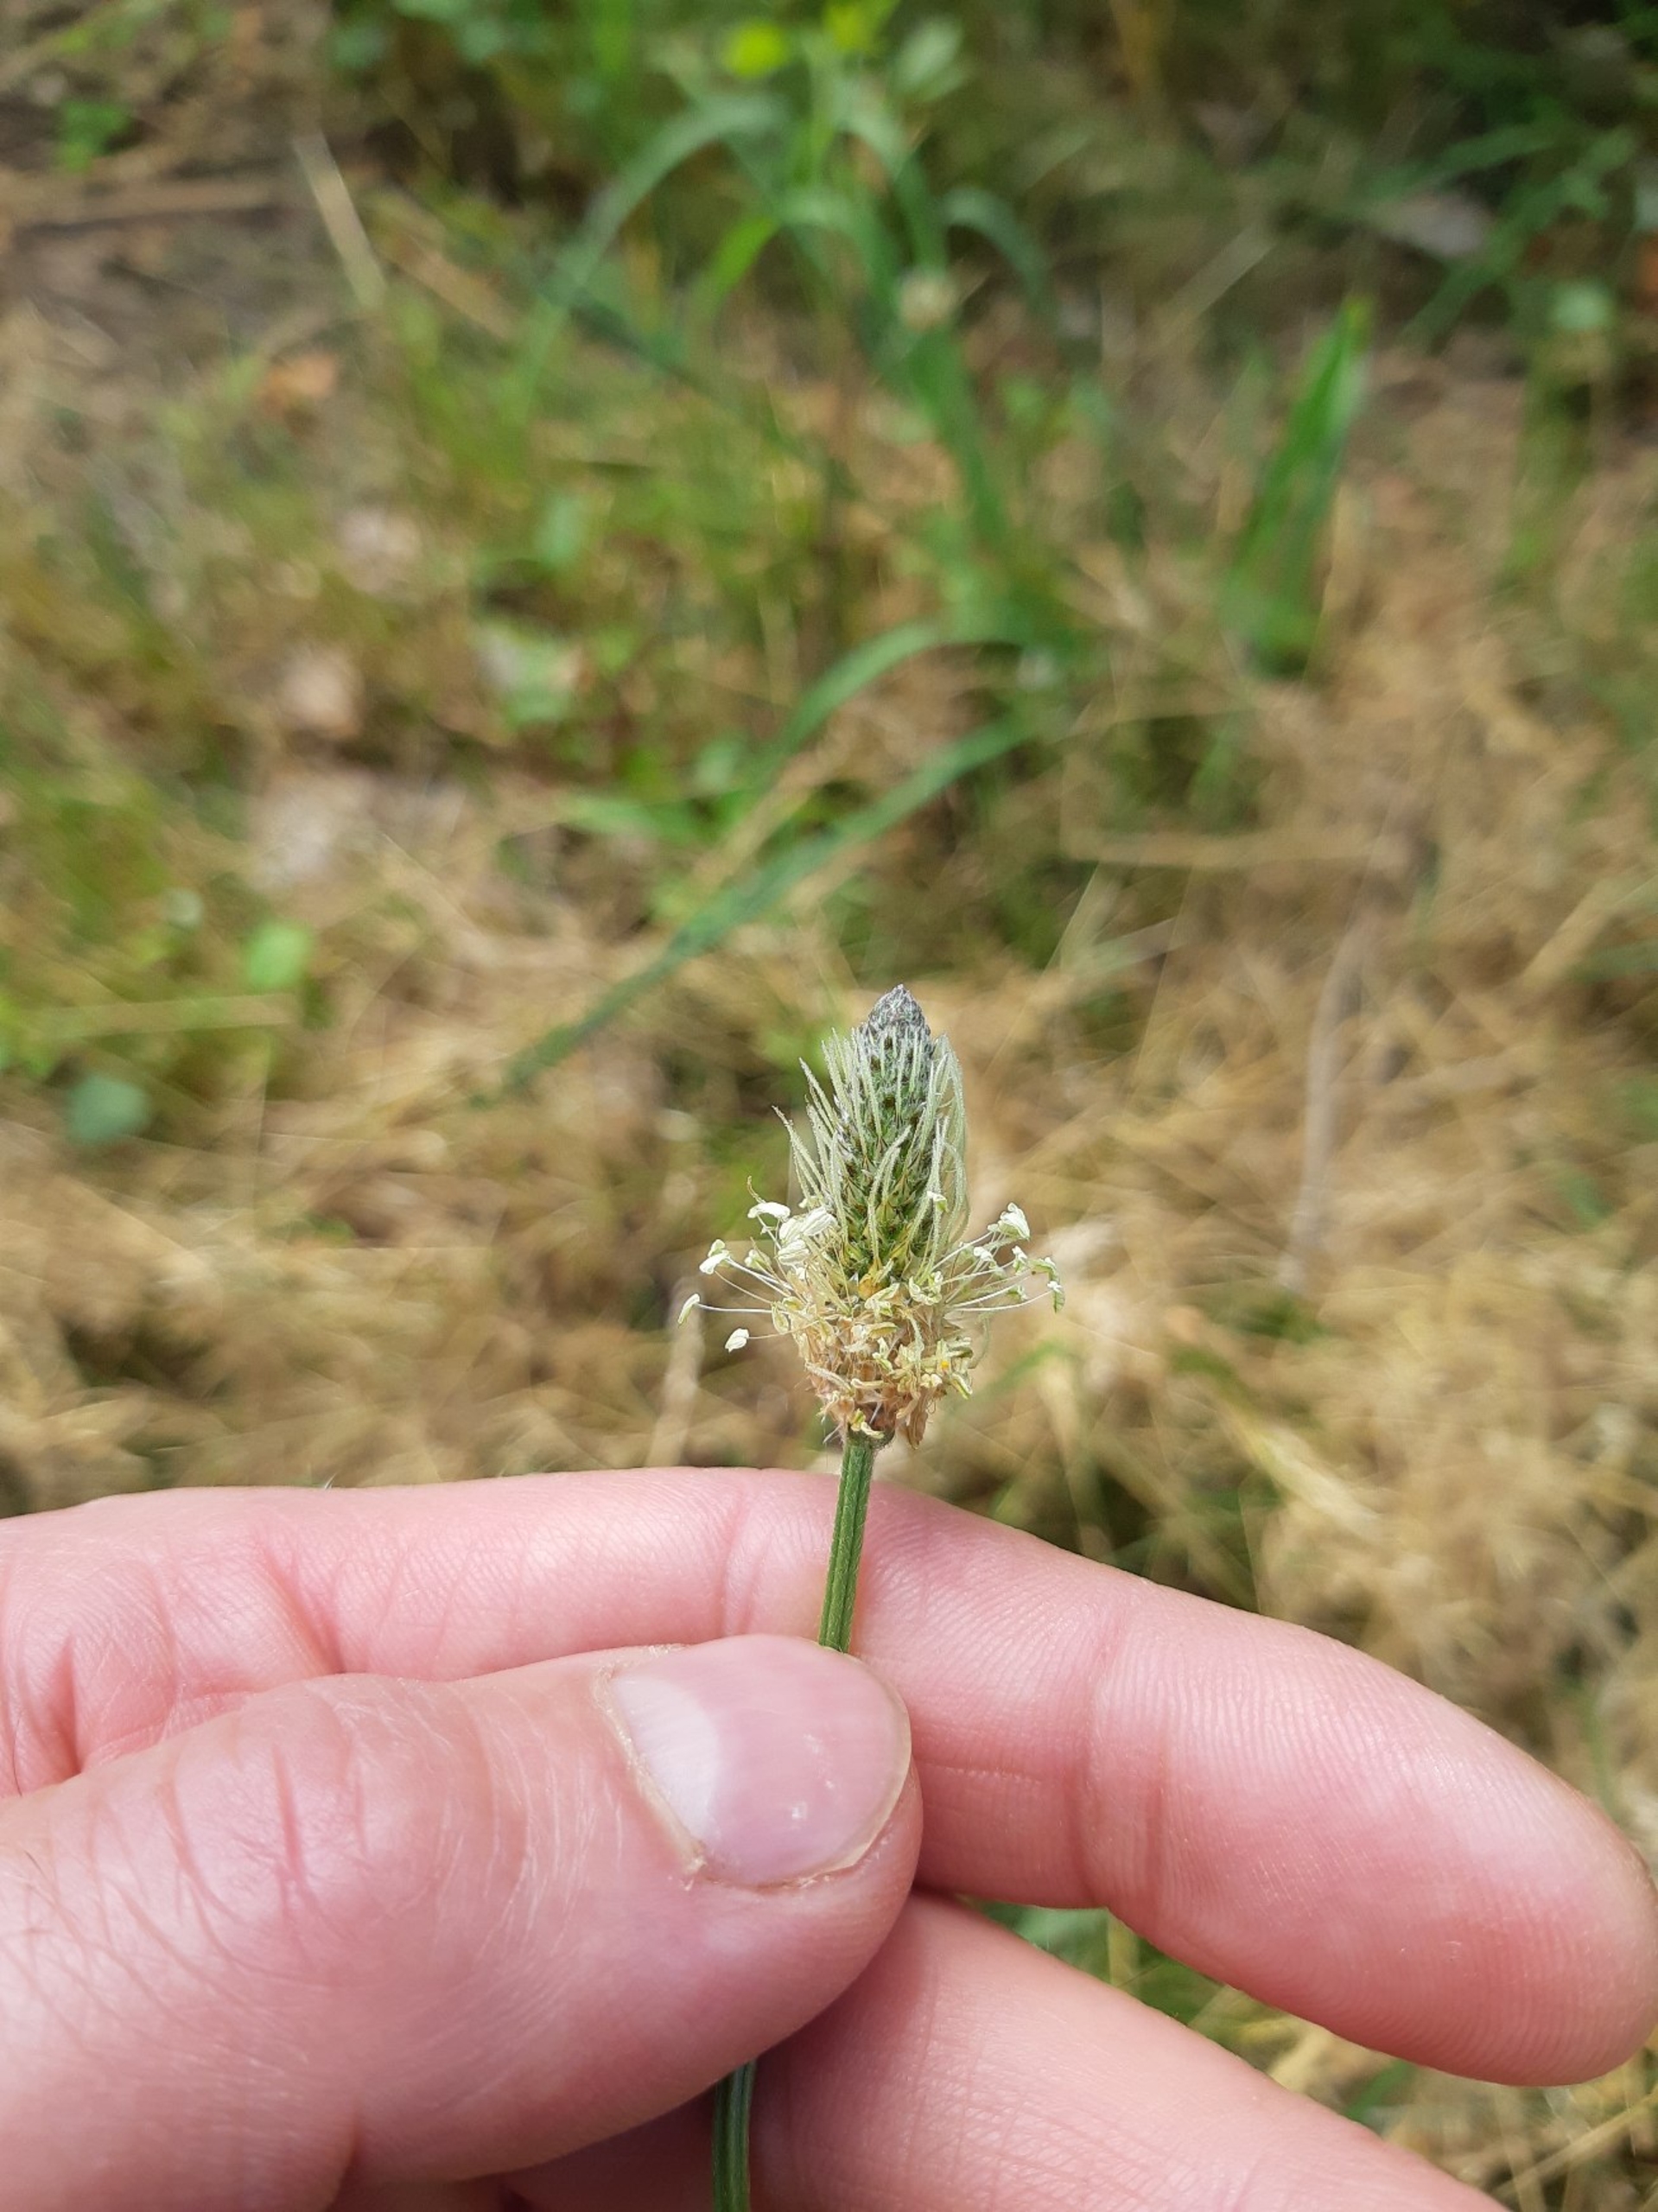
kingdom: Plantae
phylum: Tracheophyta
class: Magnoliopsida
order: Lamiales
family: Plantaginaceae
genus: Plantago
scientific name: Plantago lanceolata
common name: Lancet-vejbred
